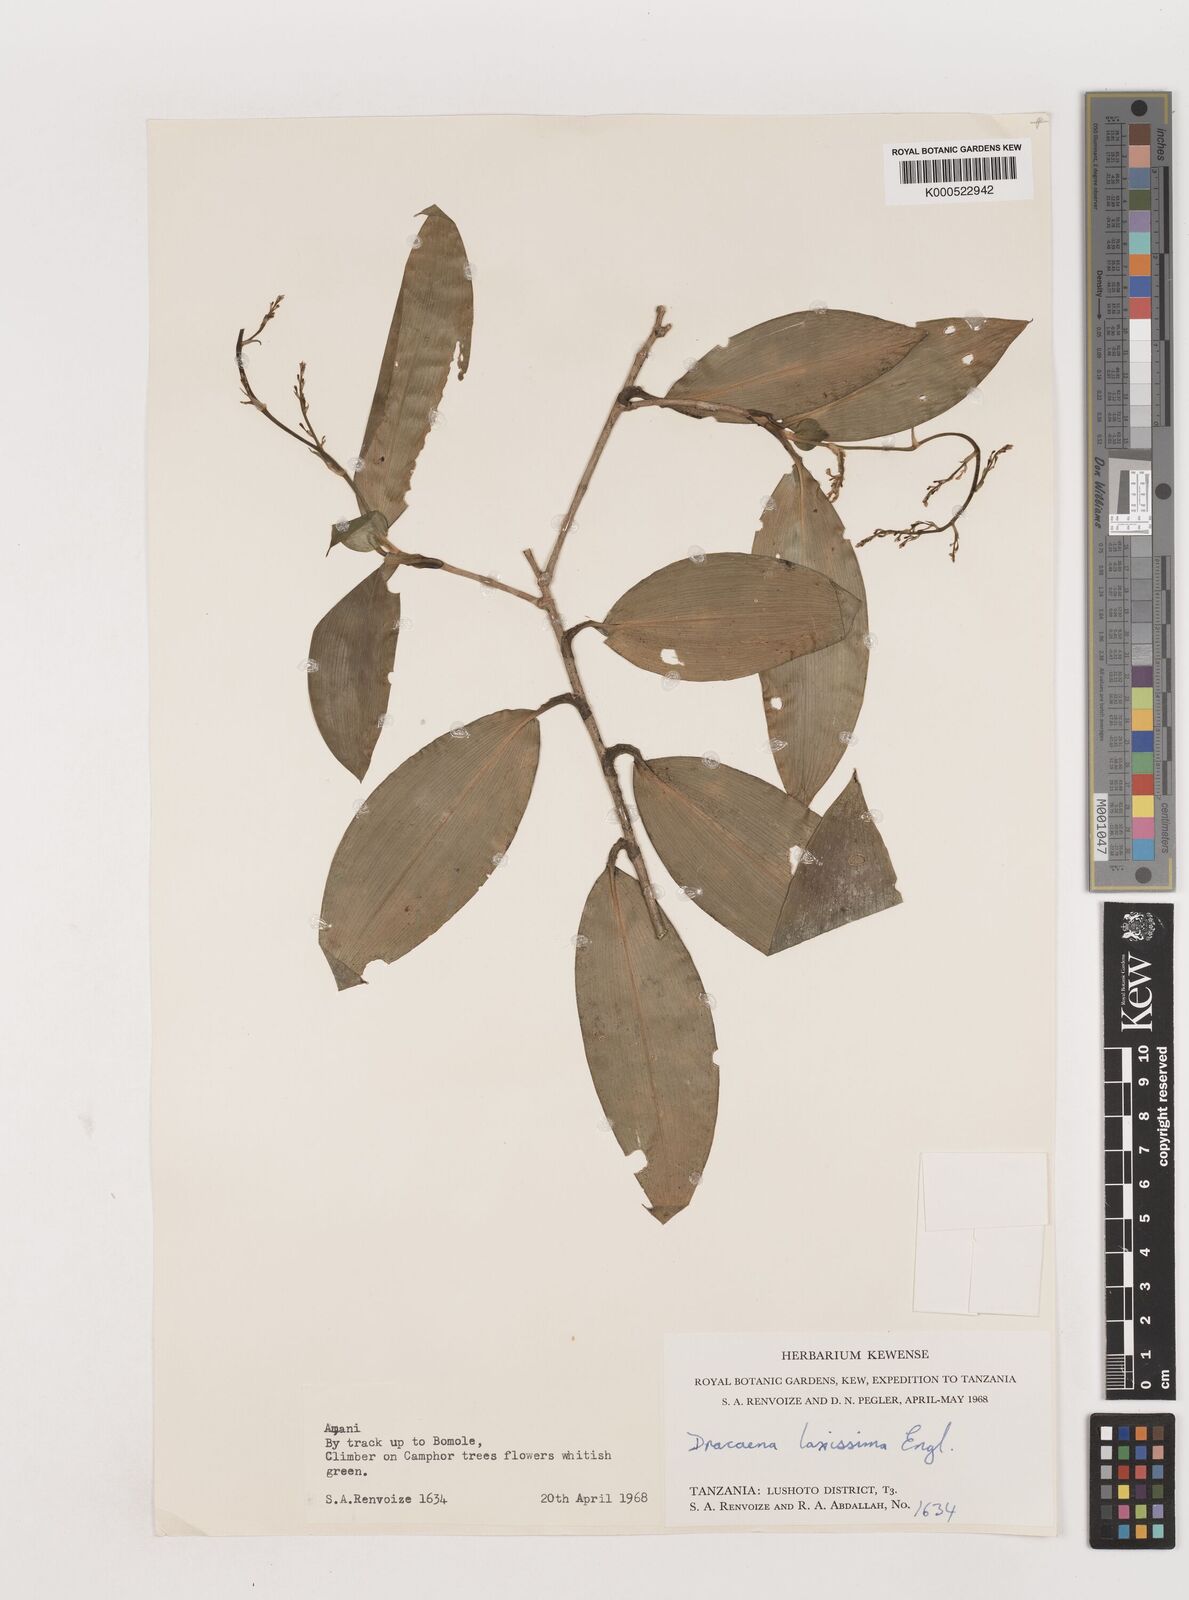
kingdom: Plantae
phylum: Tracheophyta
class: Liliopsida
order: Asparagales
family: Asparagaceae
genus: Dracaena
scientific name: Dracaena laxissima
